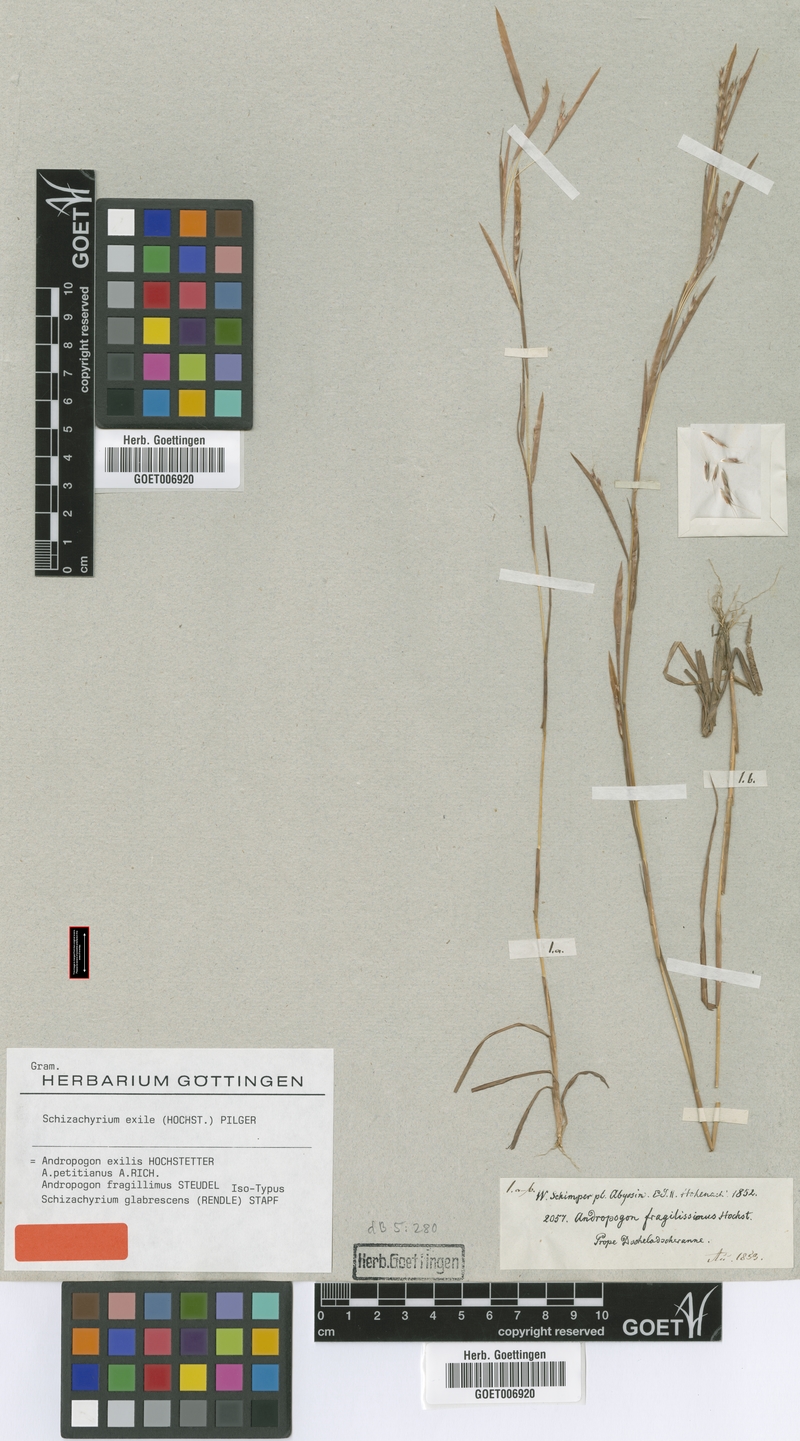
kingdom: Plantae
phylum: Tracheophyta
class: Liliopsida
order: Poales
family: Poaceae
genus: Schizachyrium
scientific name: Schizachyrium exile
